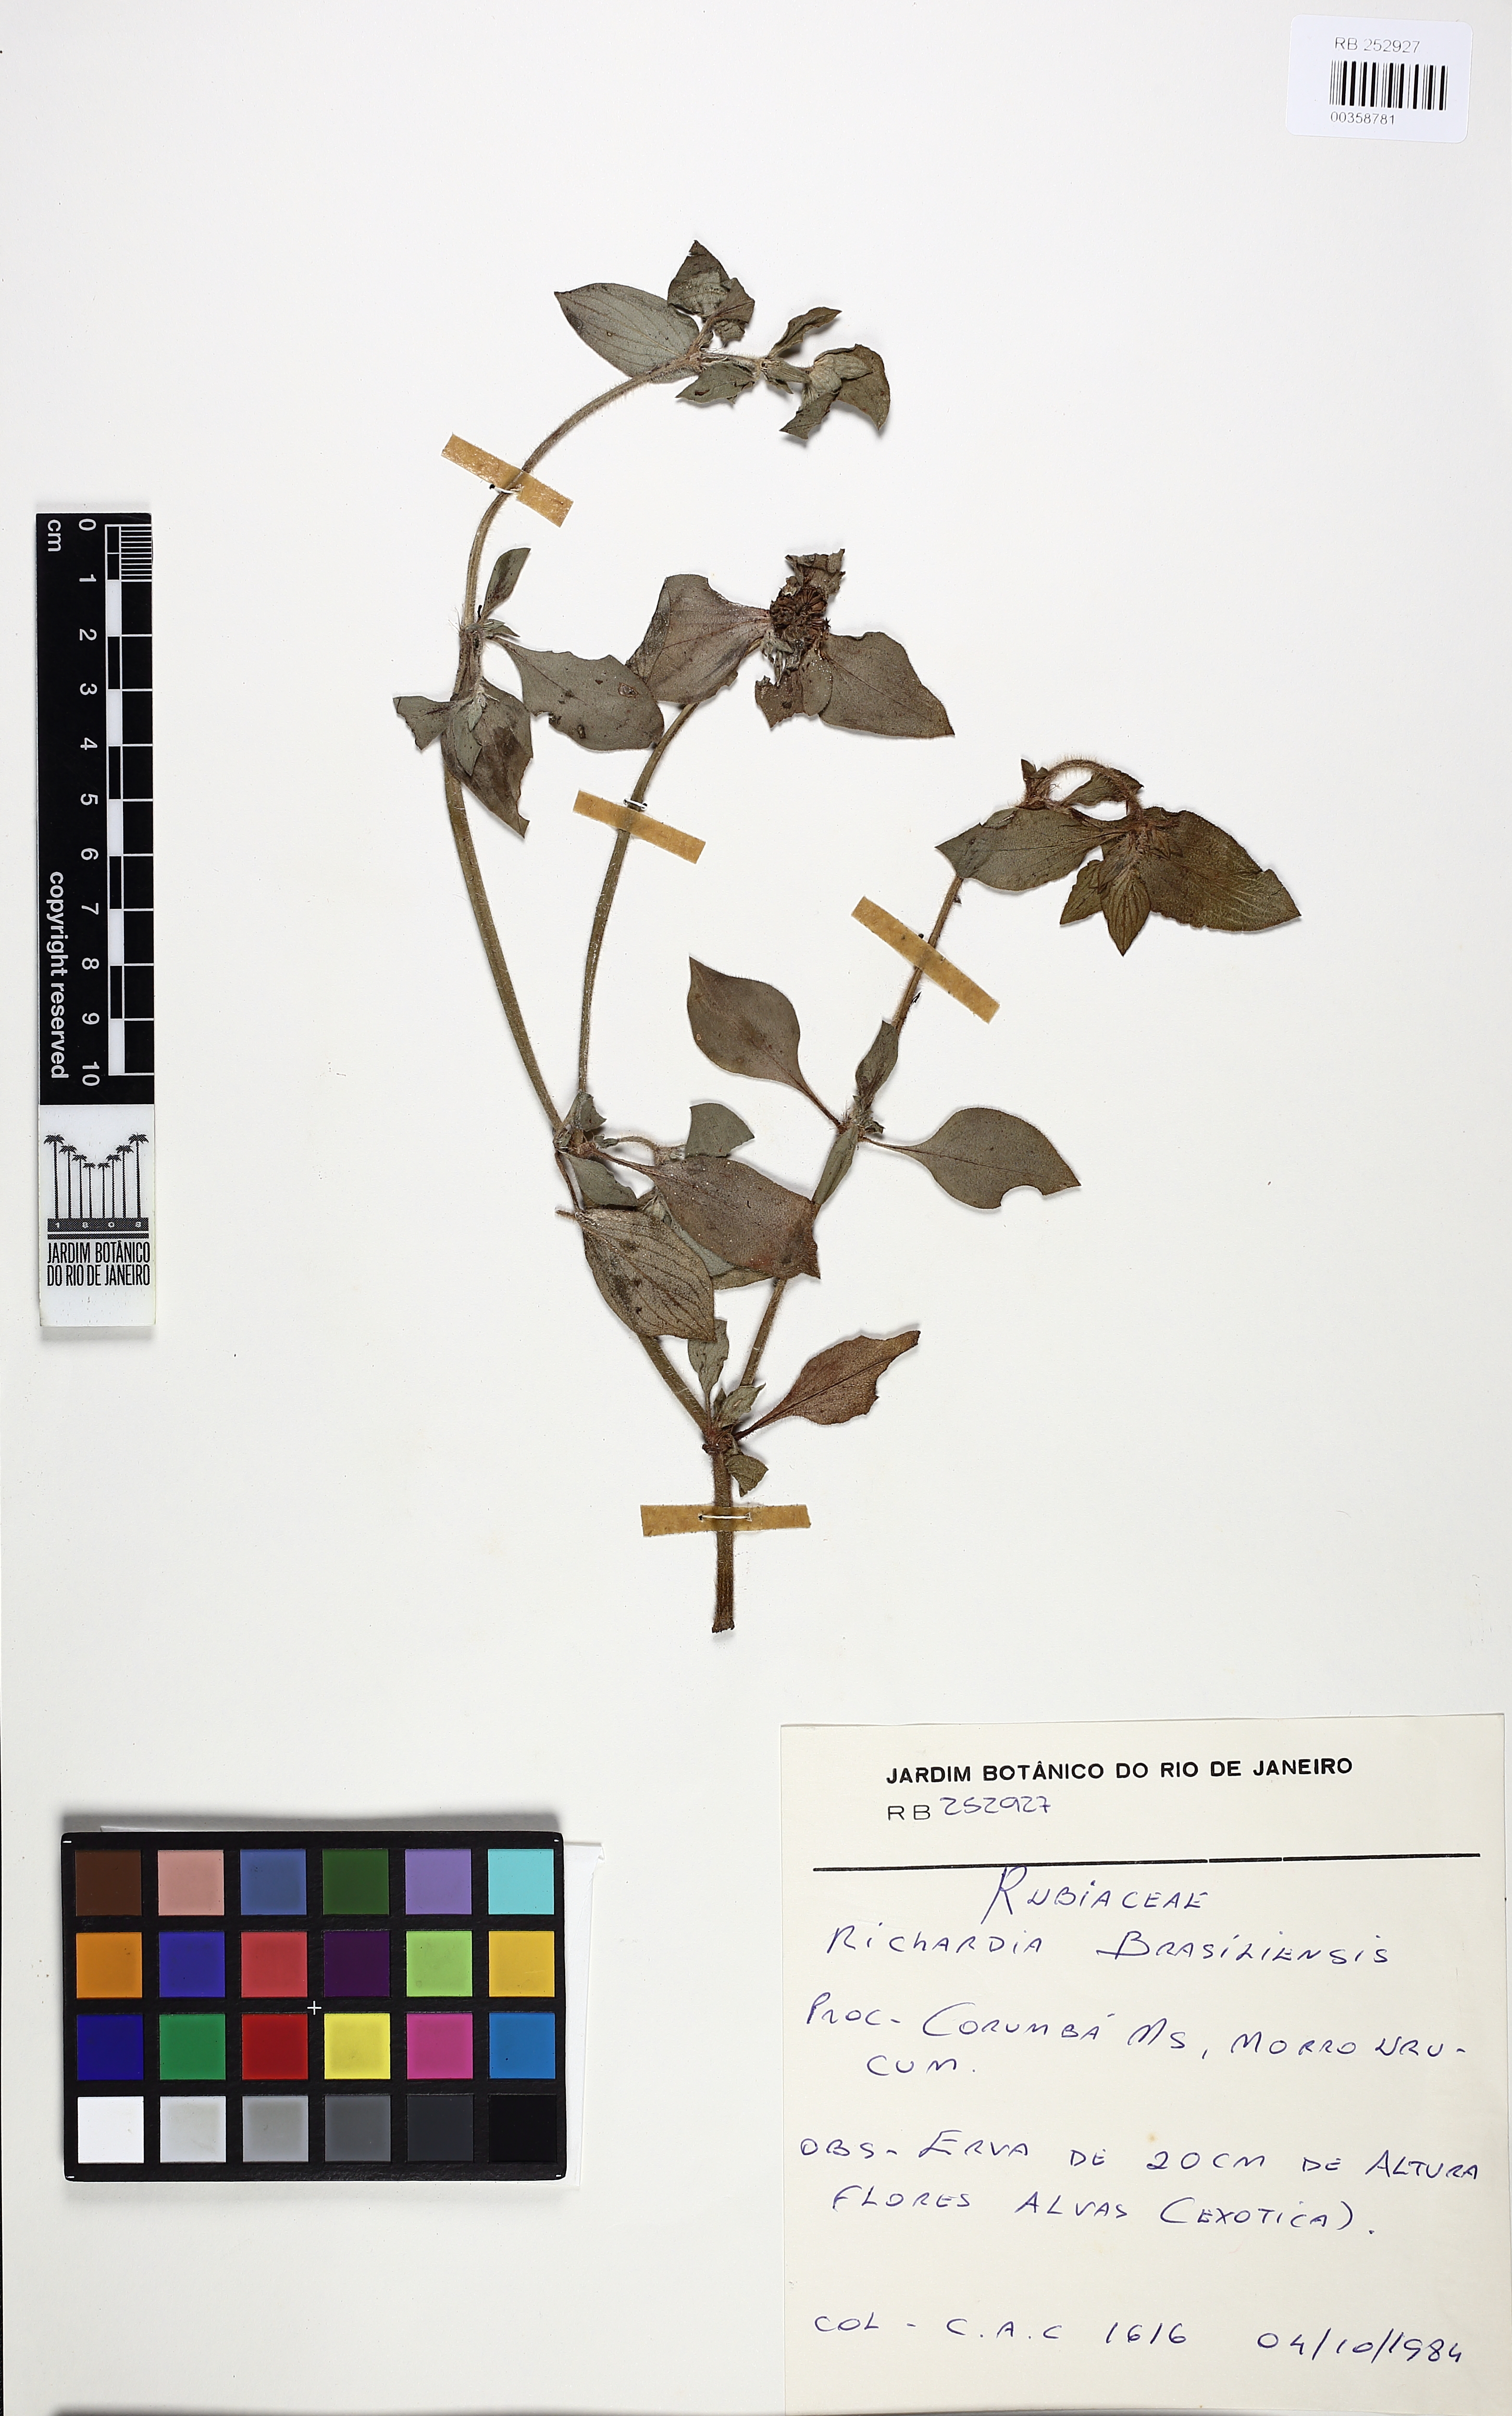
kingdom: Plantae
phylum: Tracheophyta
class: Magnoliopsida
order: Gentianales
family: Rubiaceae
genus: Richardia
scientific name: Richardia brasiliensis
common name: Tropical mexican clover
